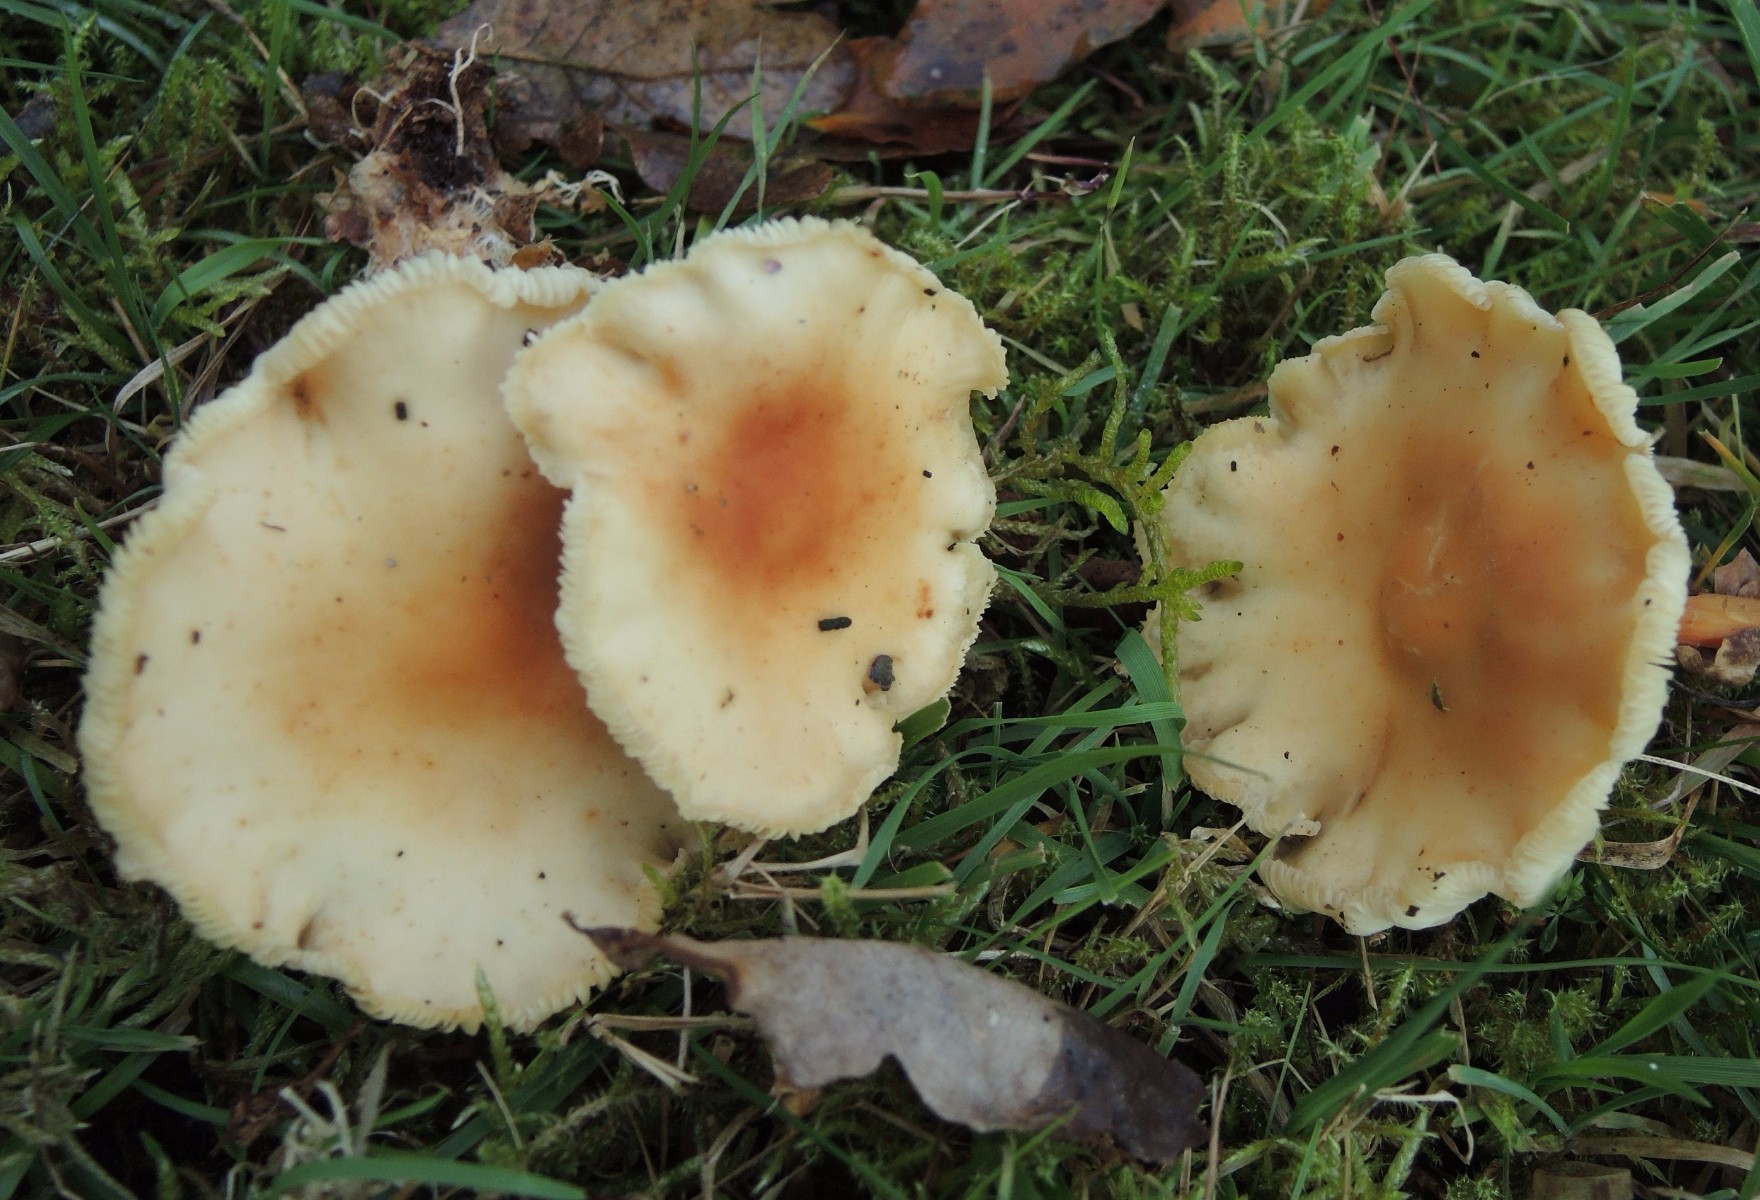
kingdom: Fungi
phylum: Basidiomycota
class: Agaricomycetes
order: Agaricales
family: Omphalotaceae
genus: Gymnopus
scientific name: Gymnopus dryophilus
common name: løv-fladhat
